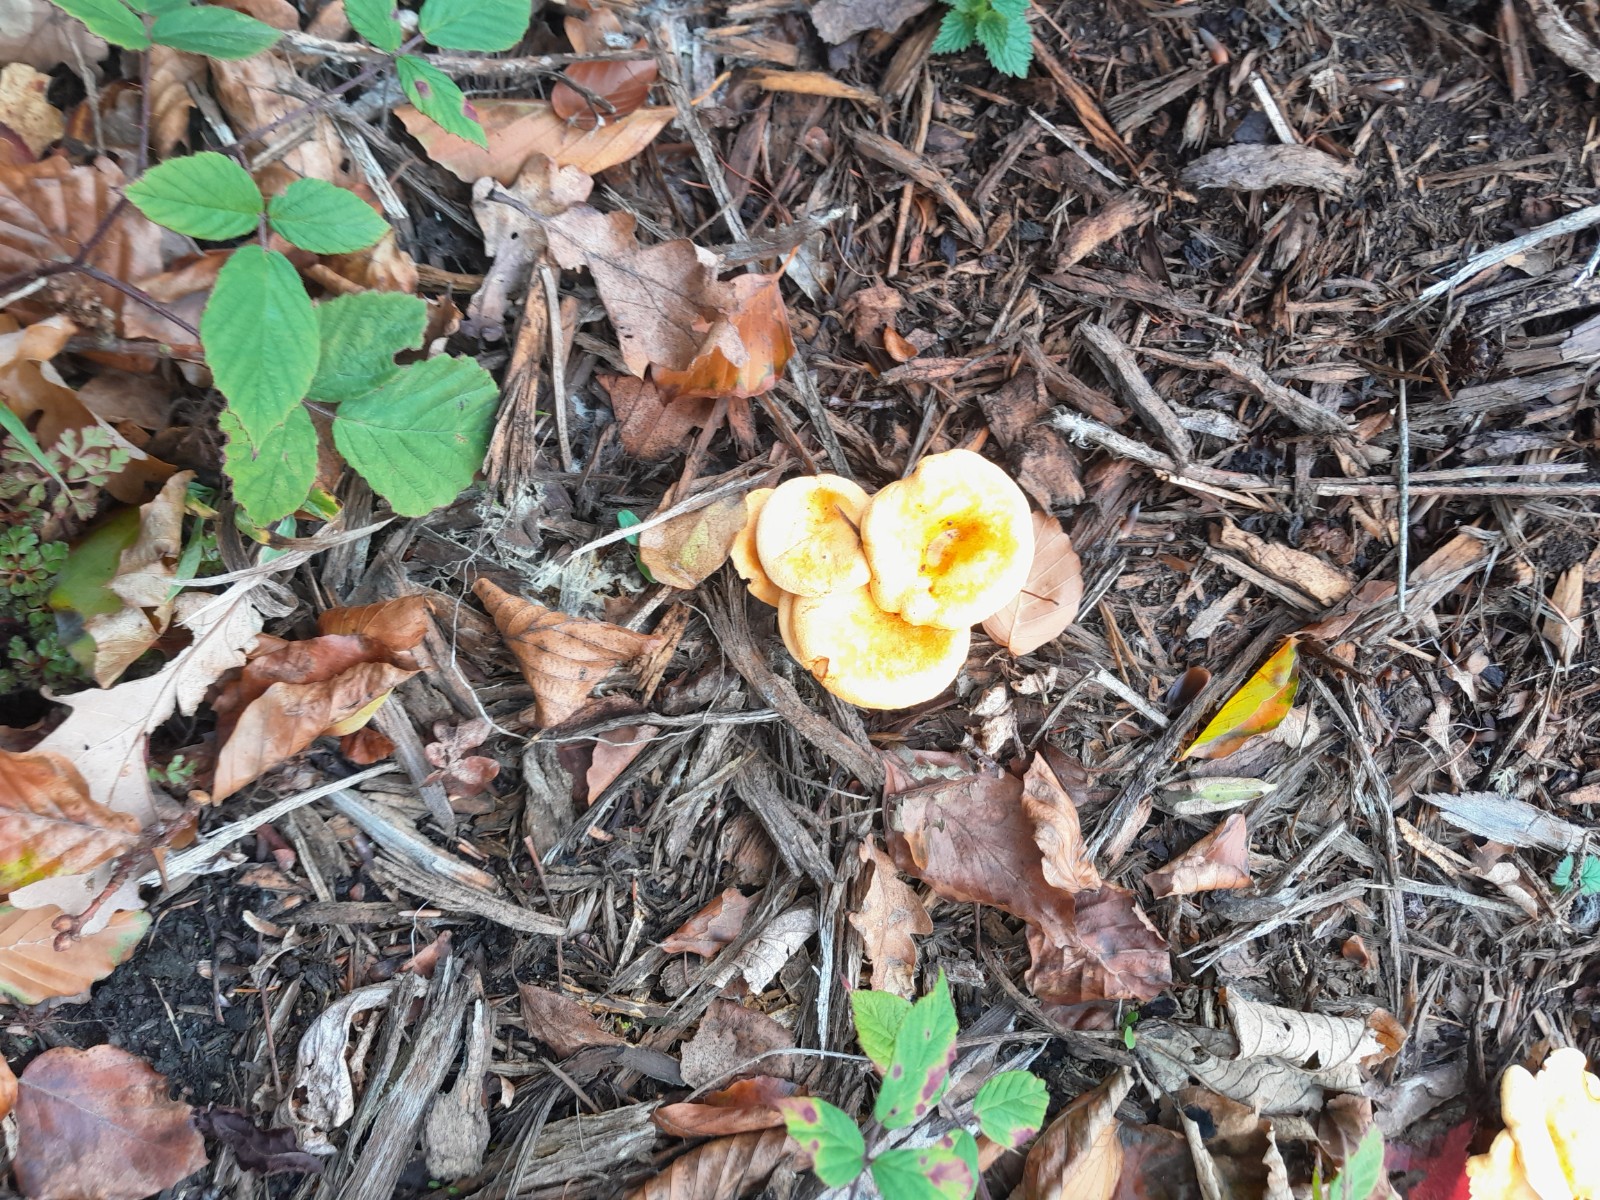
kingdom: Fungi
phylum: Basidiomycota
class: Agaricomycetes
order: Boletales
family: Hygrophoropsidaceae
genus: Hygrophoropsis
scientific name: Hygrophoropsis aurantiaca
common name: almindelig orangekantarel
